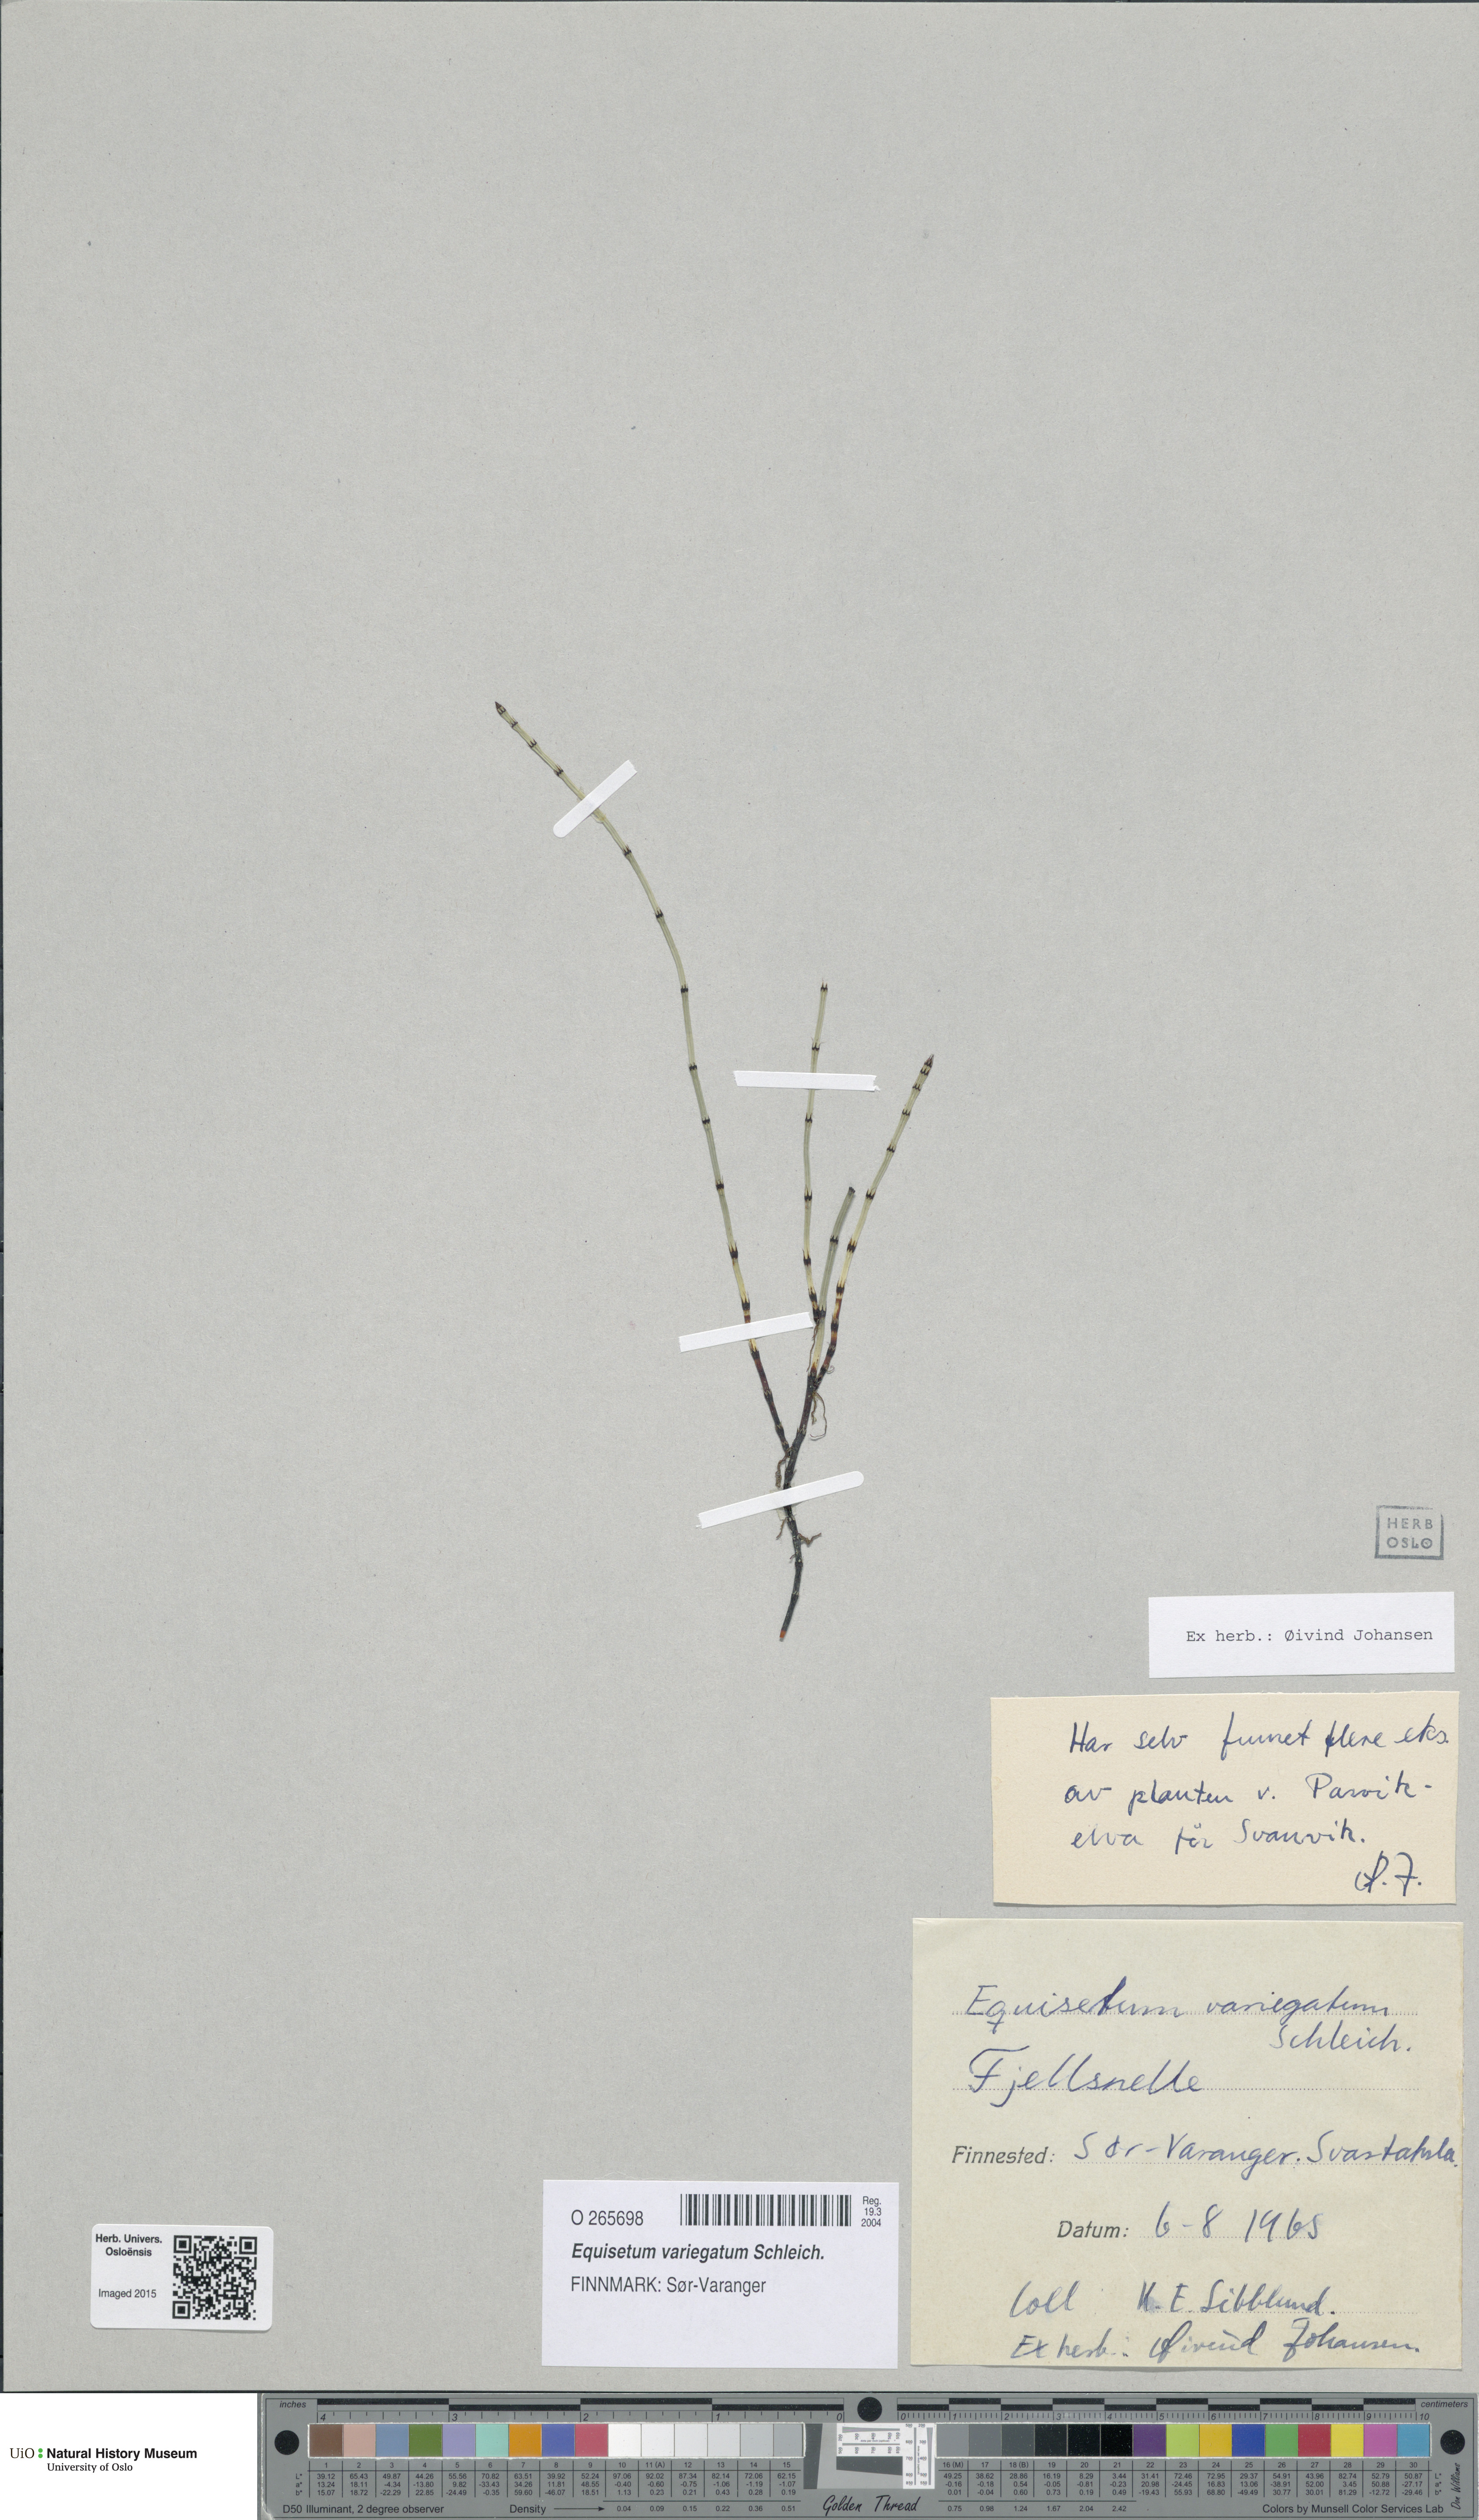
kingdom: Plantae
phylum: Tracheophyta
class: Polypodiopsida
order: Equisetales
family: Equisetaceae
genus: Equisetum
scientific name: Equisetum variegatum
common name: Variegated horsetail
